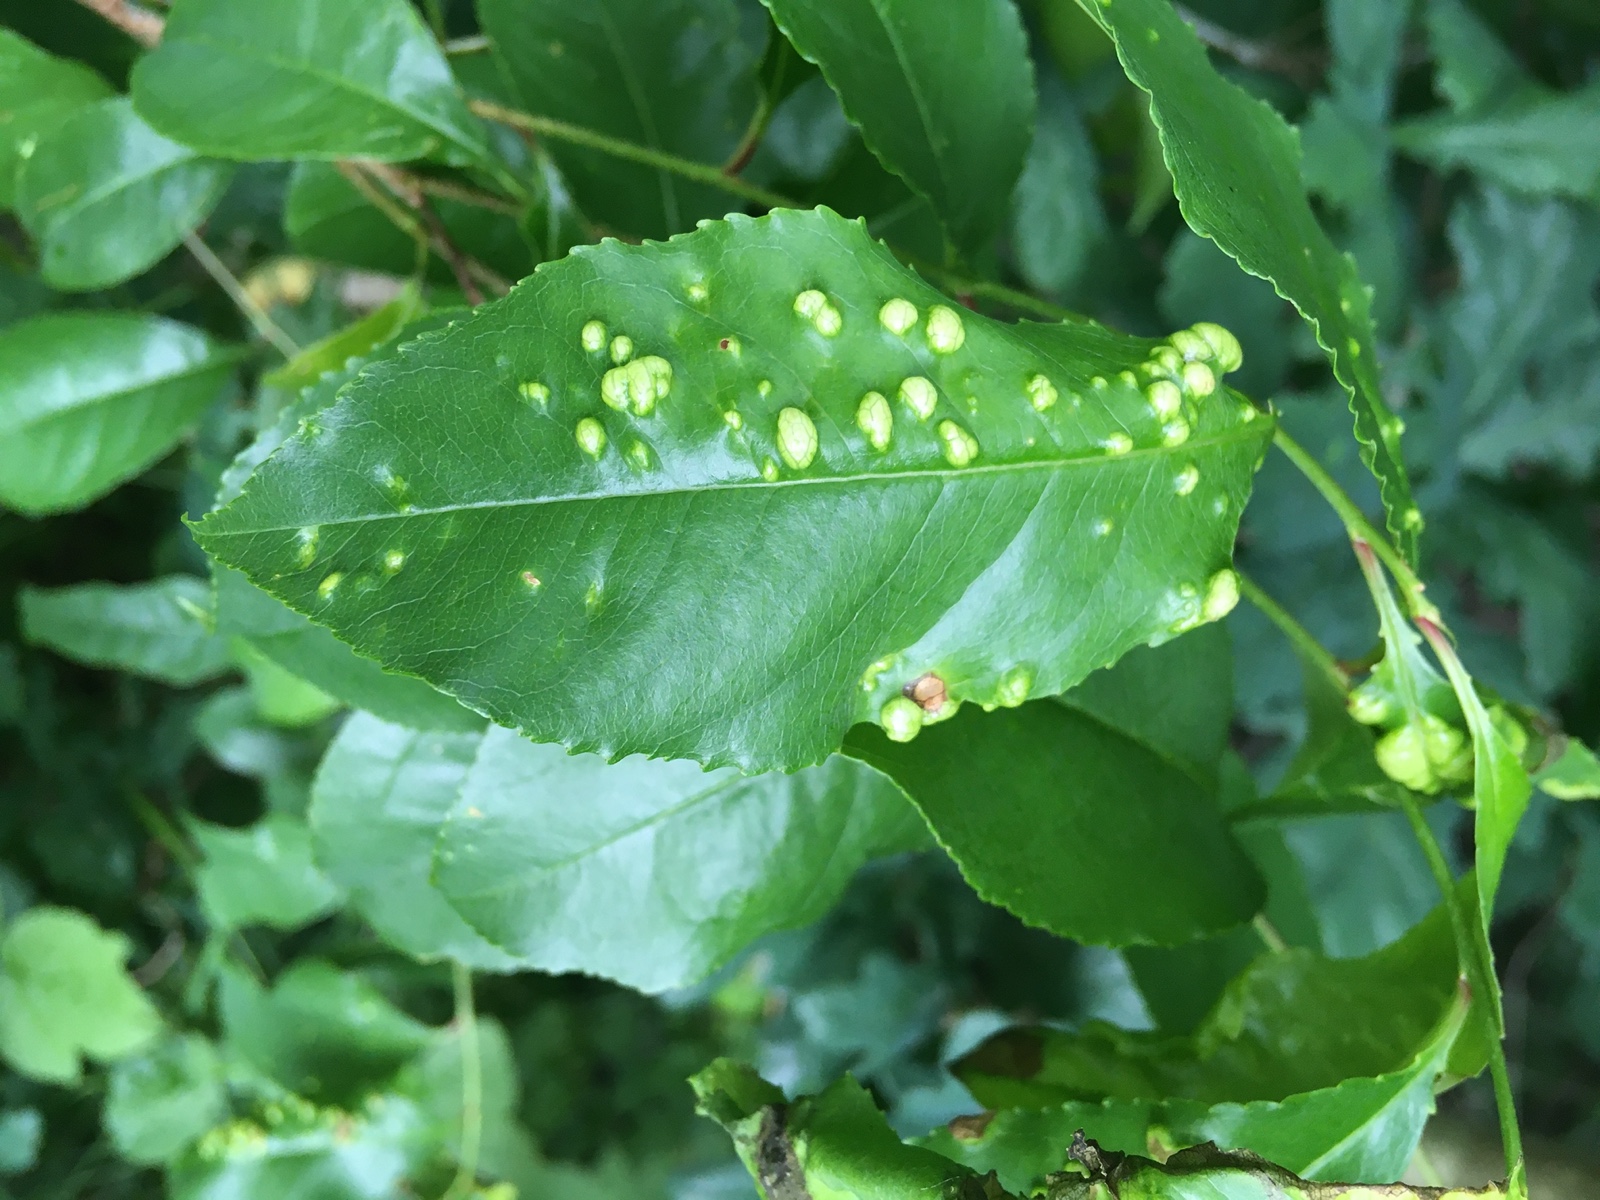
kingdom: Fungi
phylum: Ascomycota
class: Taphrinomycetes
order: Taphrinales
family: Taphrinaceae
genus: Taphrina
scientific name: Taphrina farlowii
